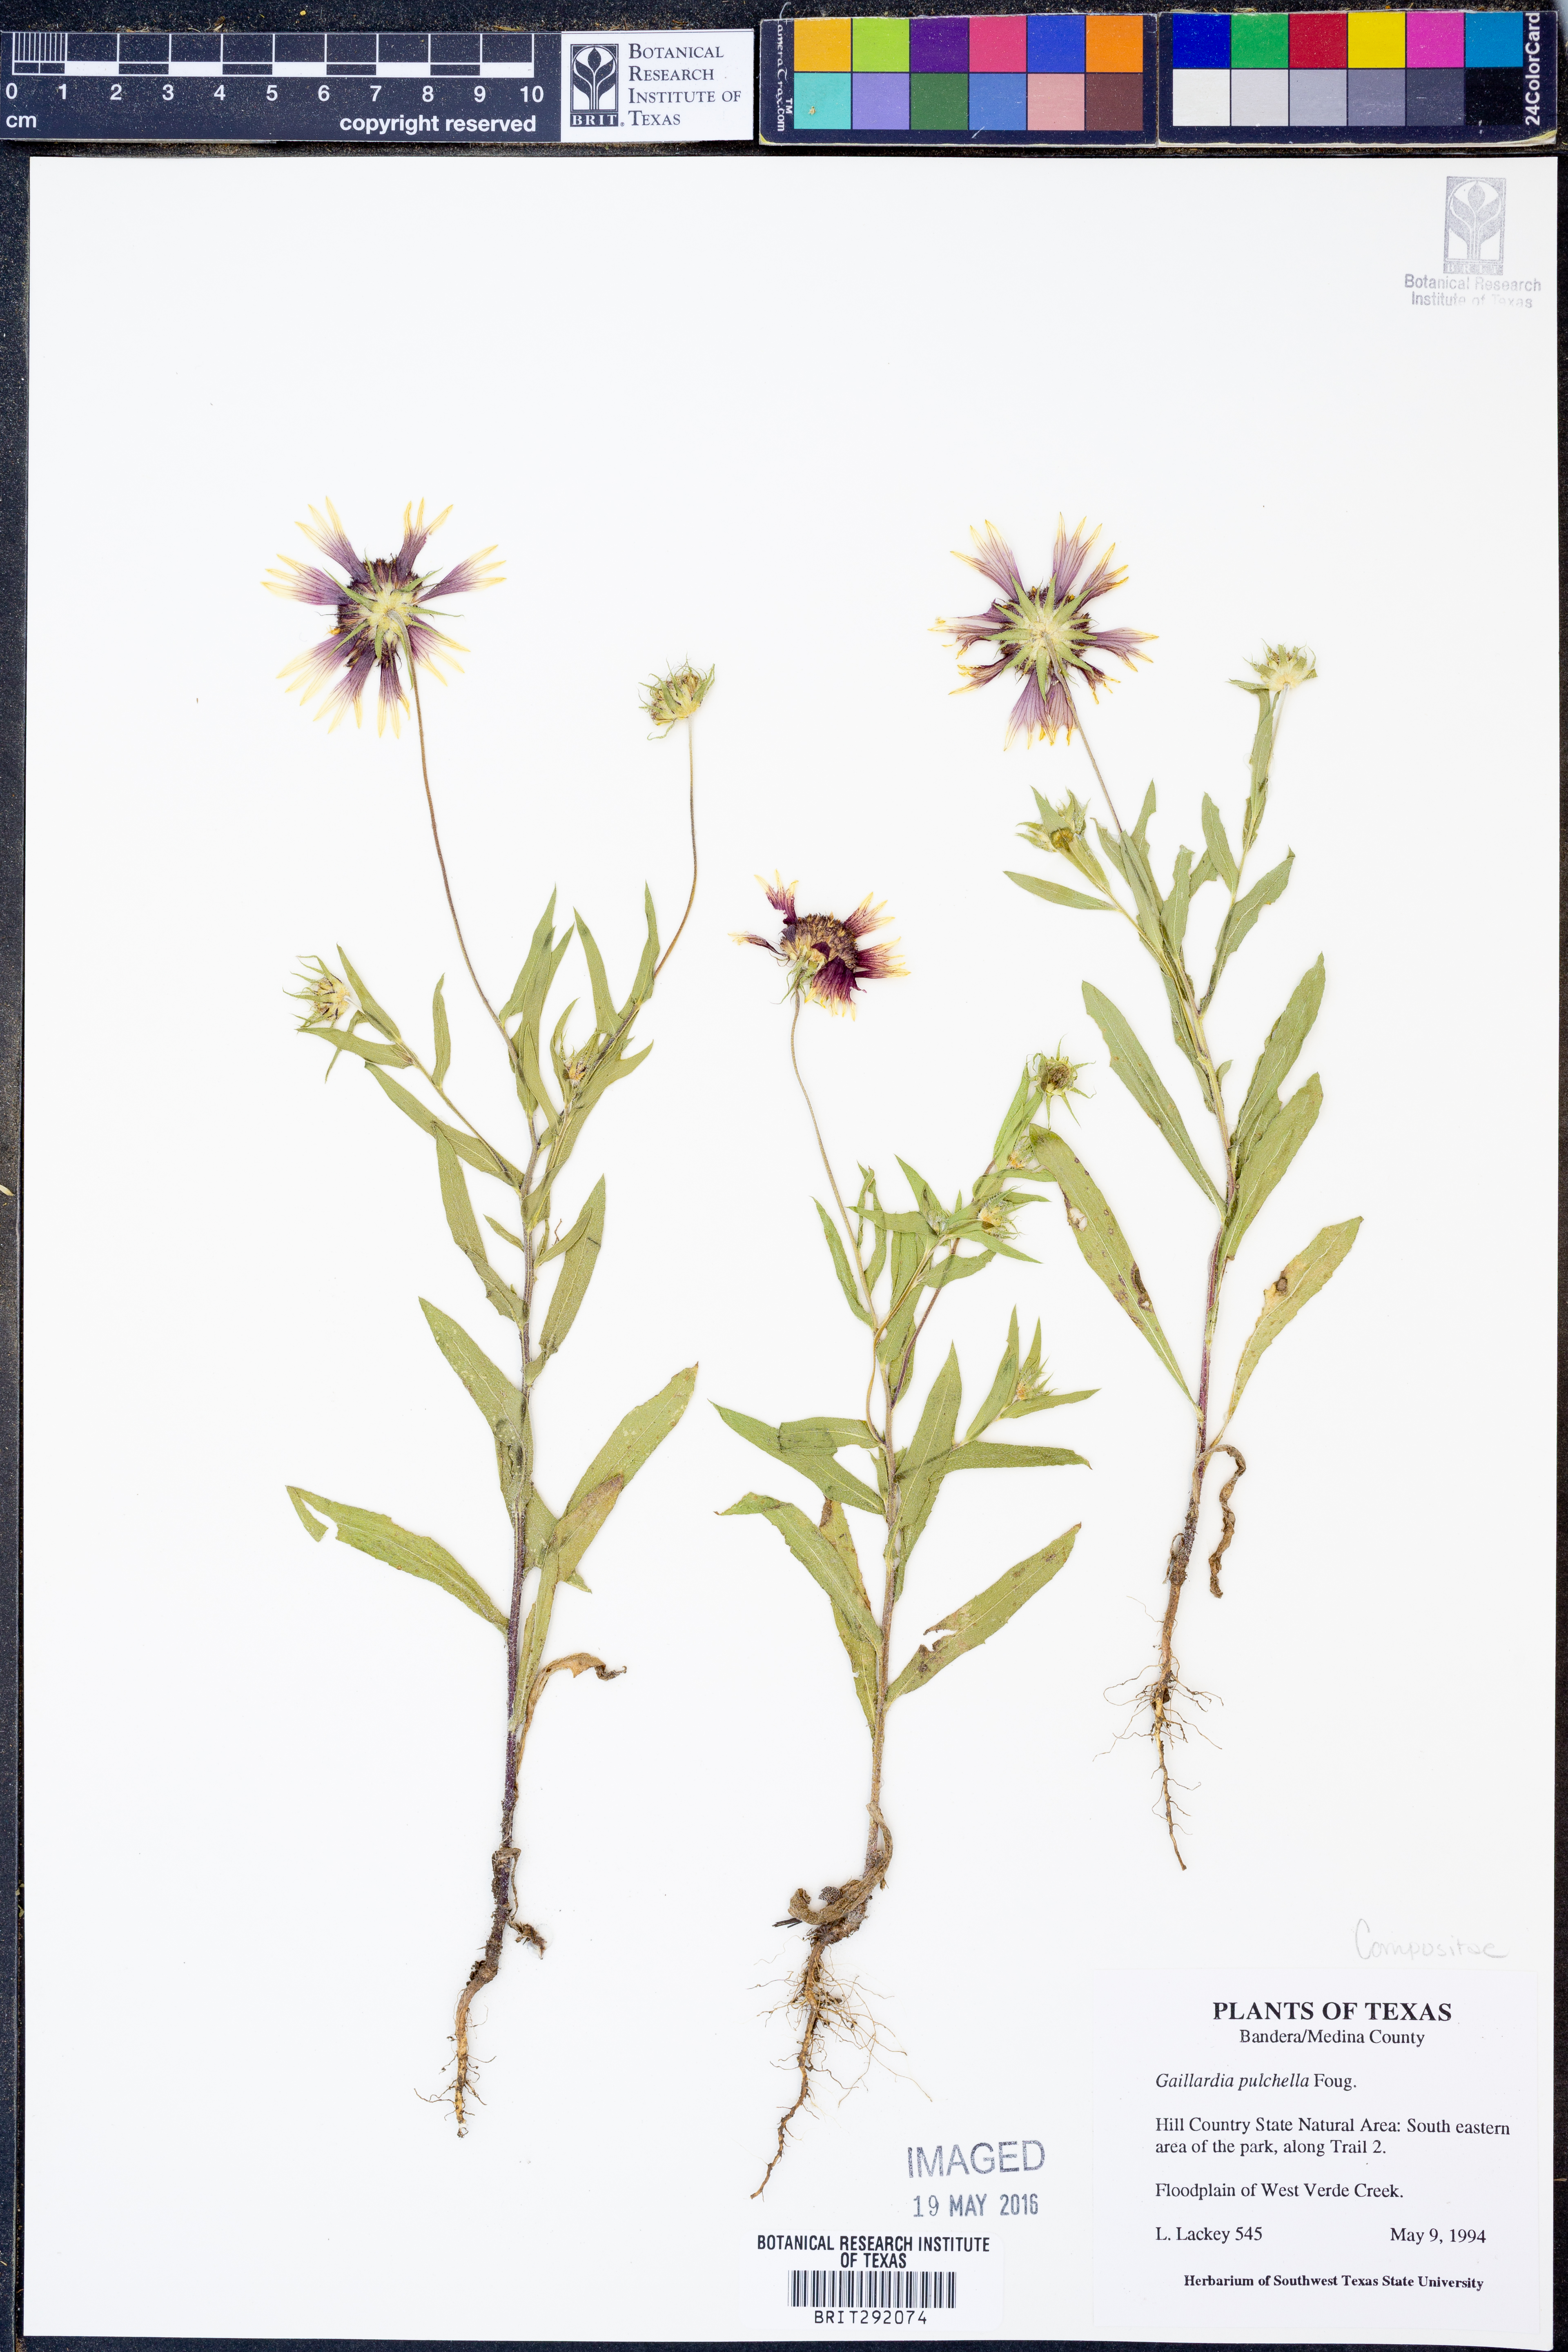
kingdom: Plantae
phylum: Tracheophyta
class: Magnoliopsida
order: Asterales
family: Asteraceae
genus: Gaillardia
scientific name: Gaillardia pulchella
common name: Firewheel
